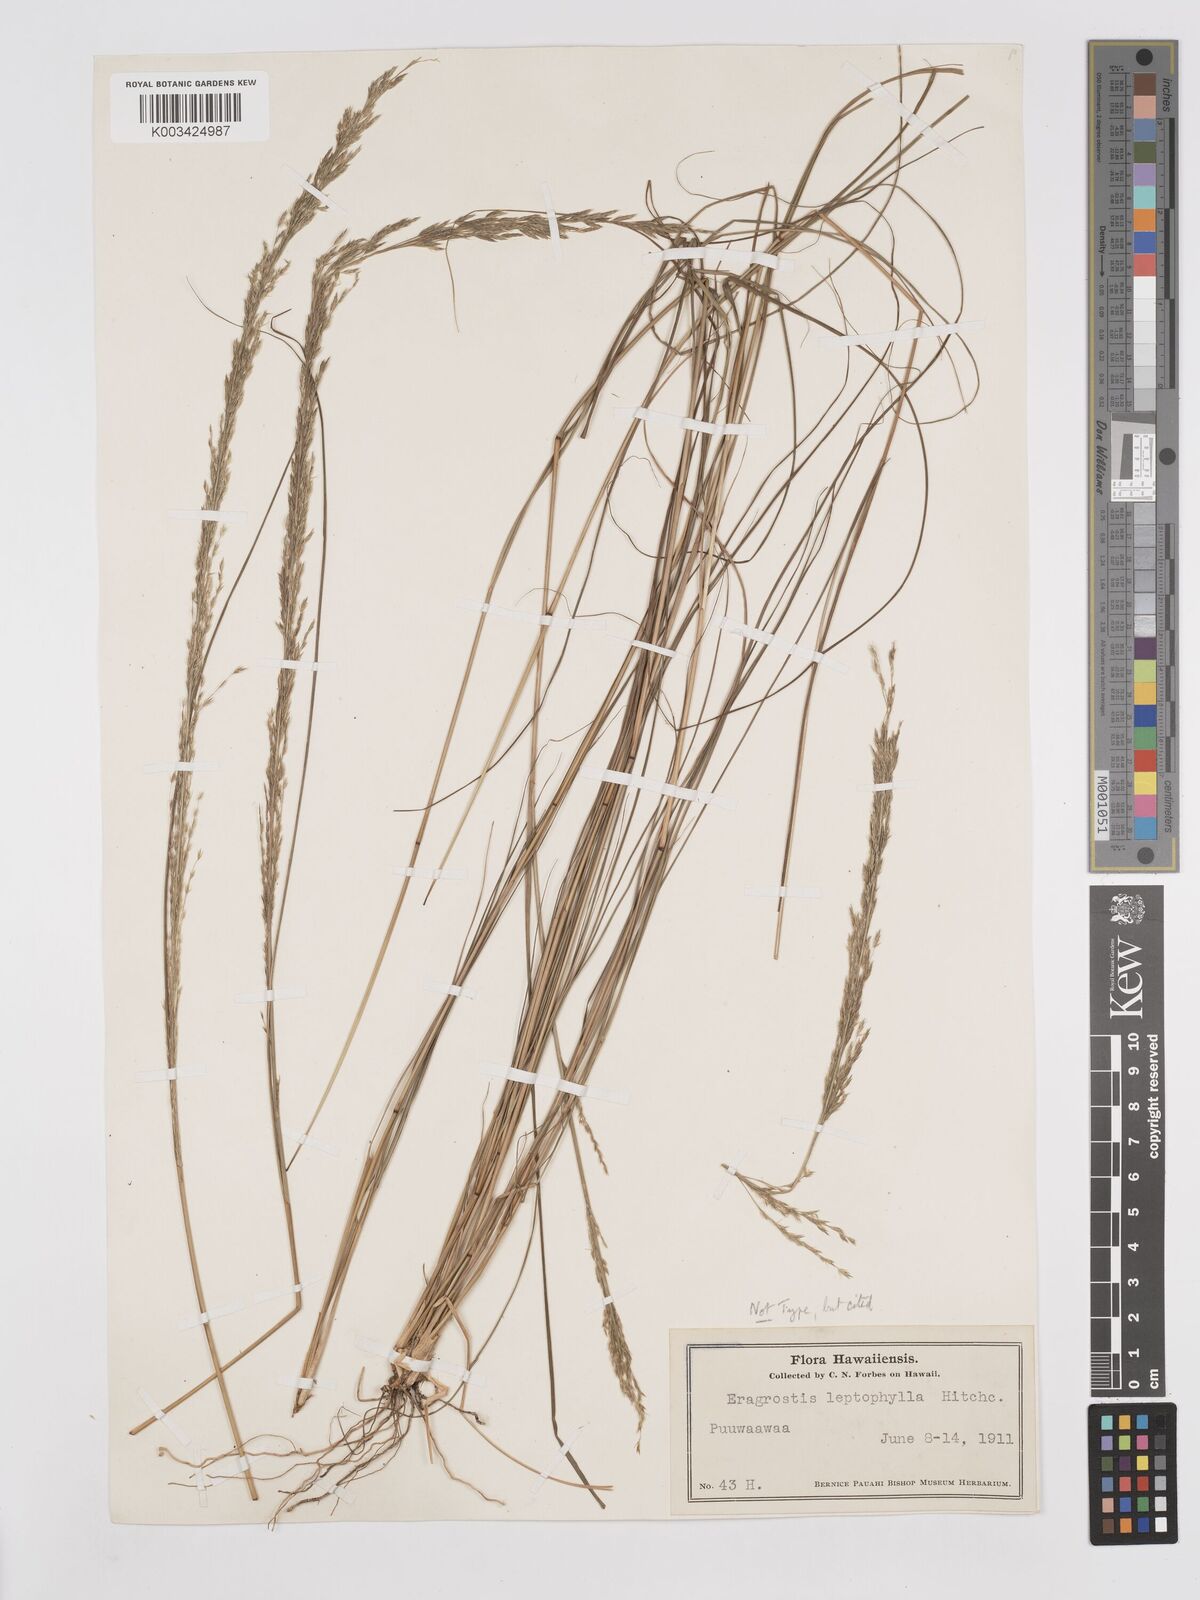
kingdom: Plantae
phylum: Tracheophyta
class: Liliopsida
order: Poales
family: Poaceae
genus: Eragrostis
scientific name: Eragrostis leptophylla
